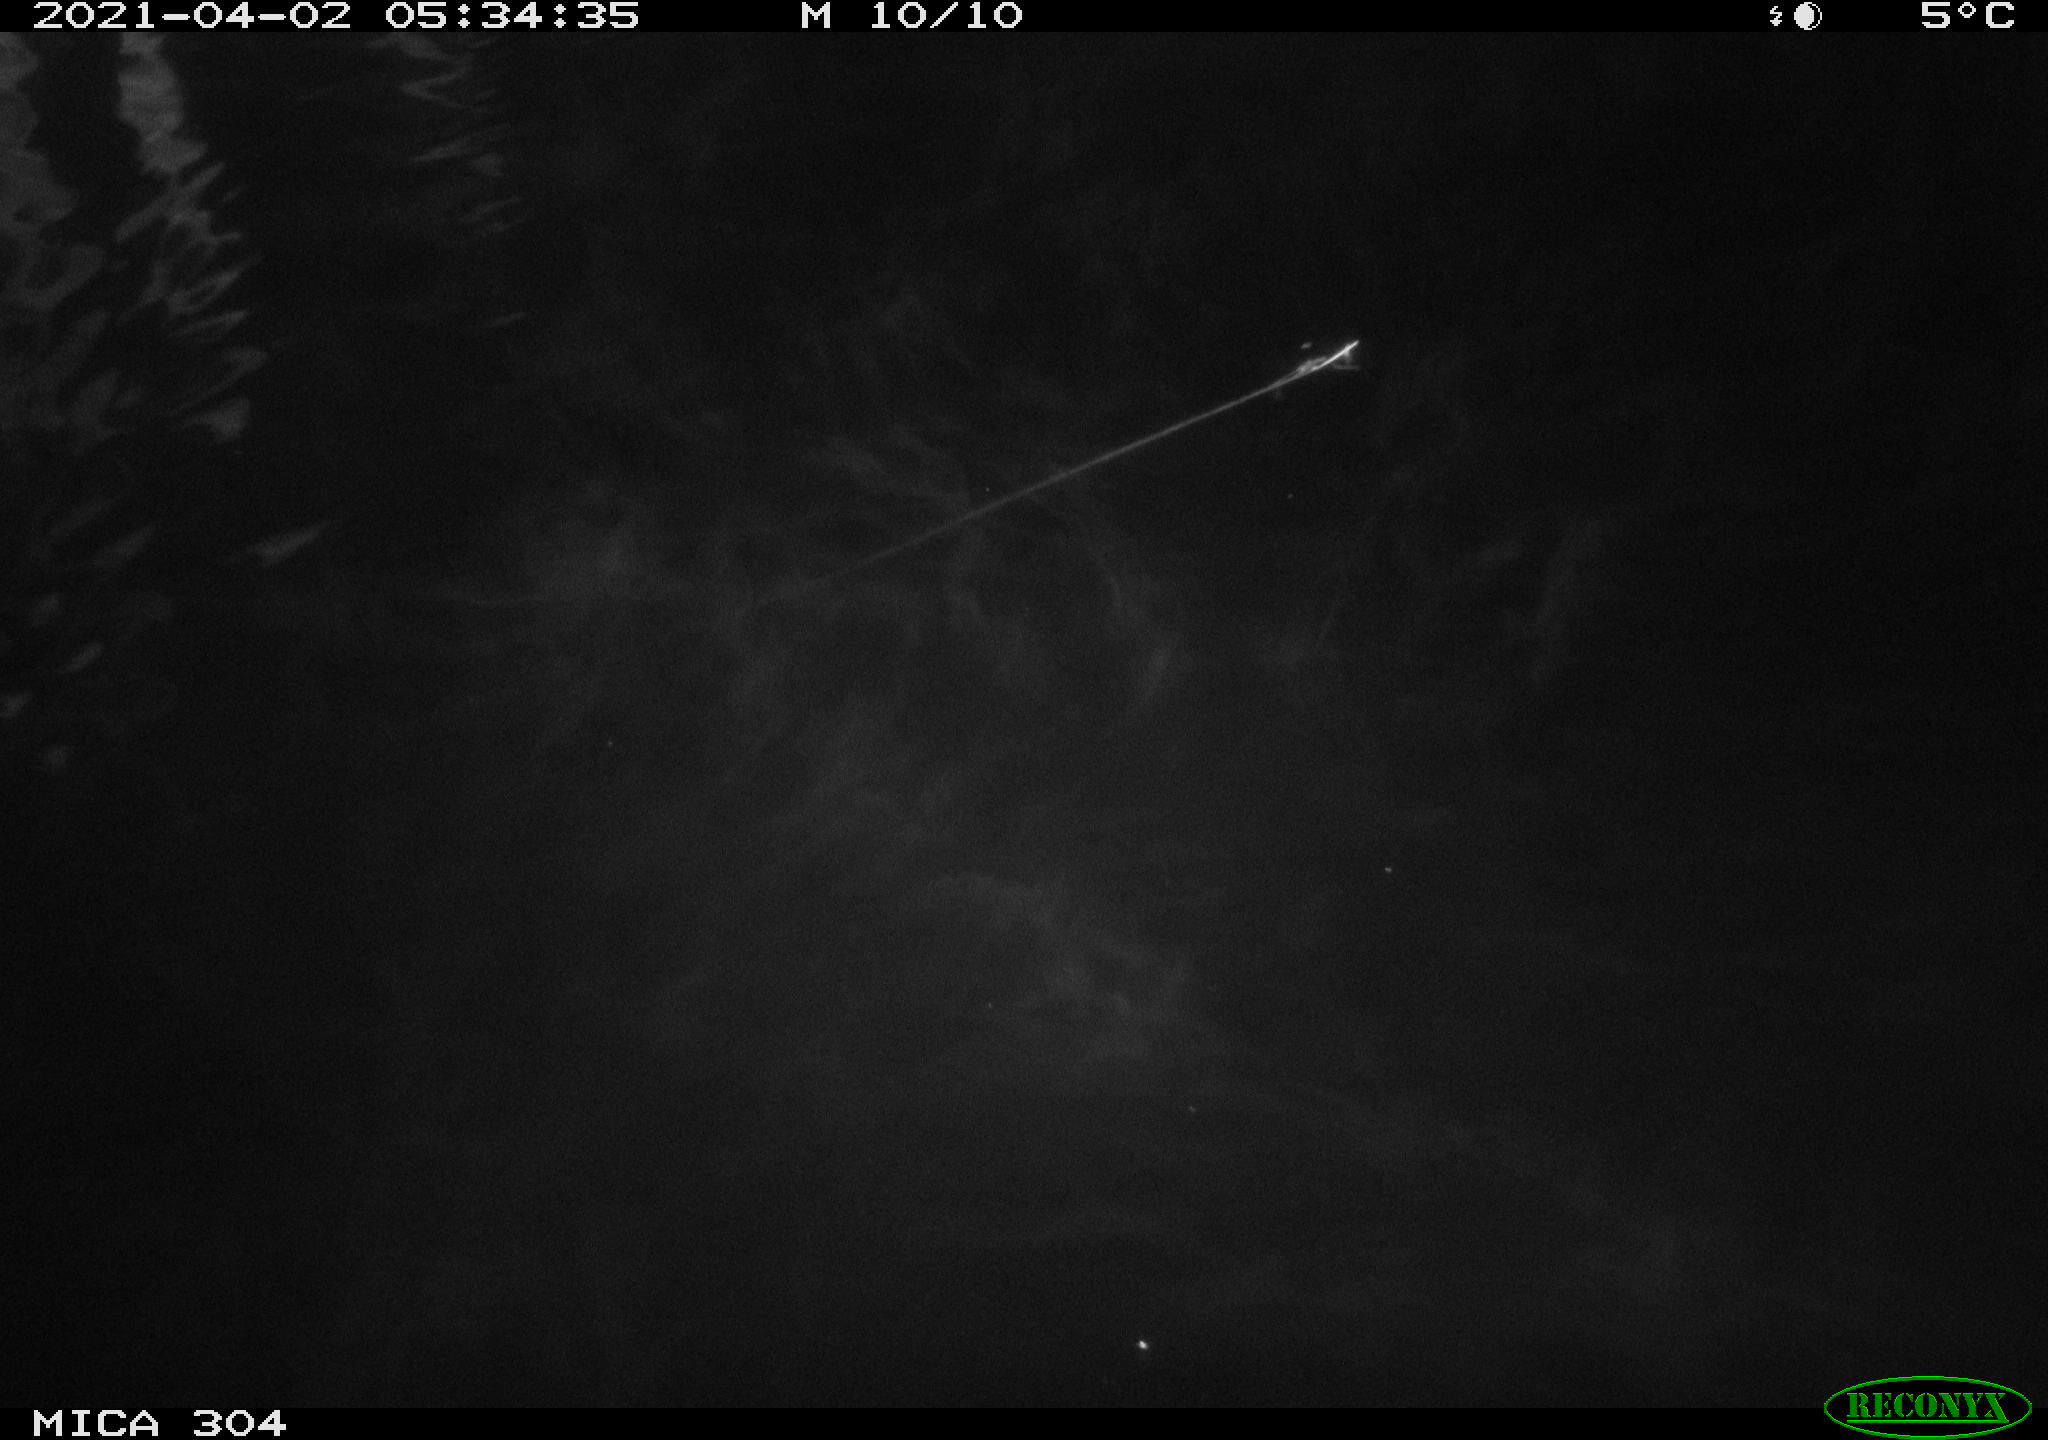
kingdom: Animalia
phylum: Chordata
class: Mammalia
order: Rodentia
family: Cricetidae
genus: Ondatra
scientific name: Ondatra zibethicus
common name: Muskrat
